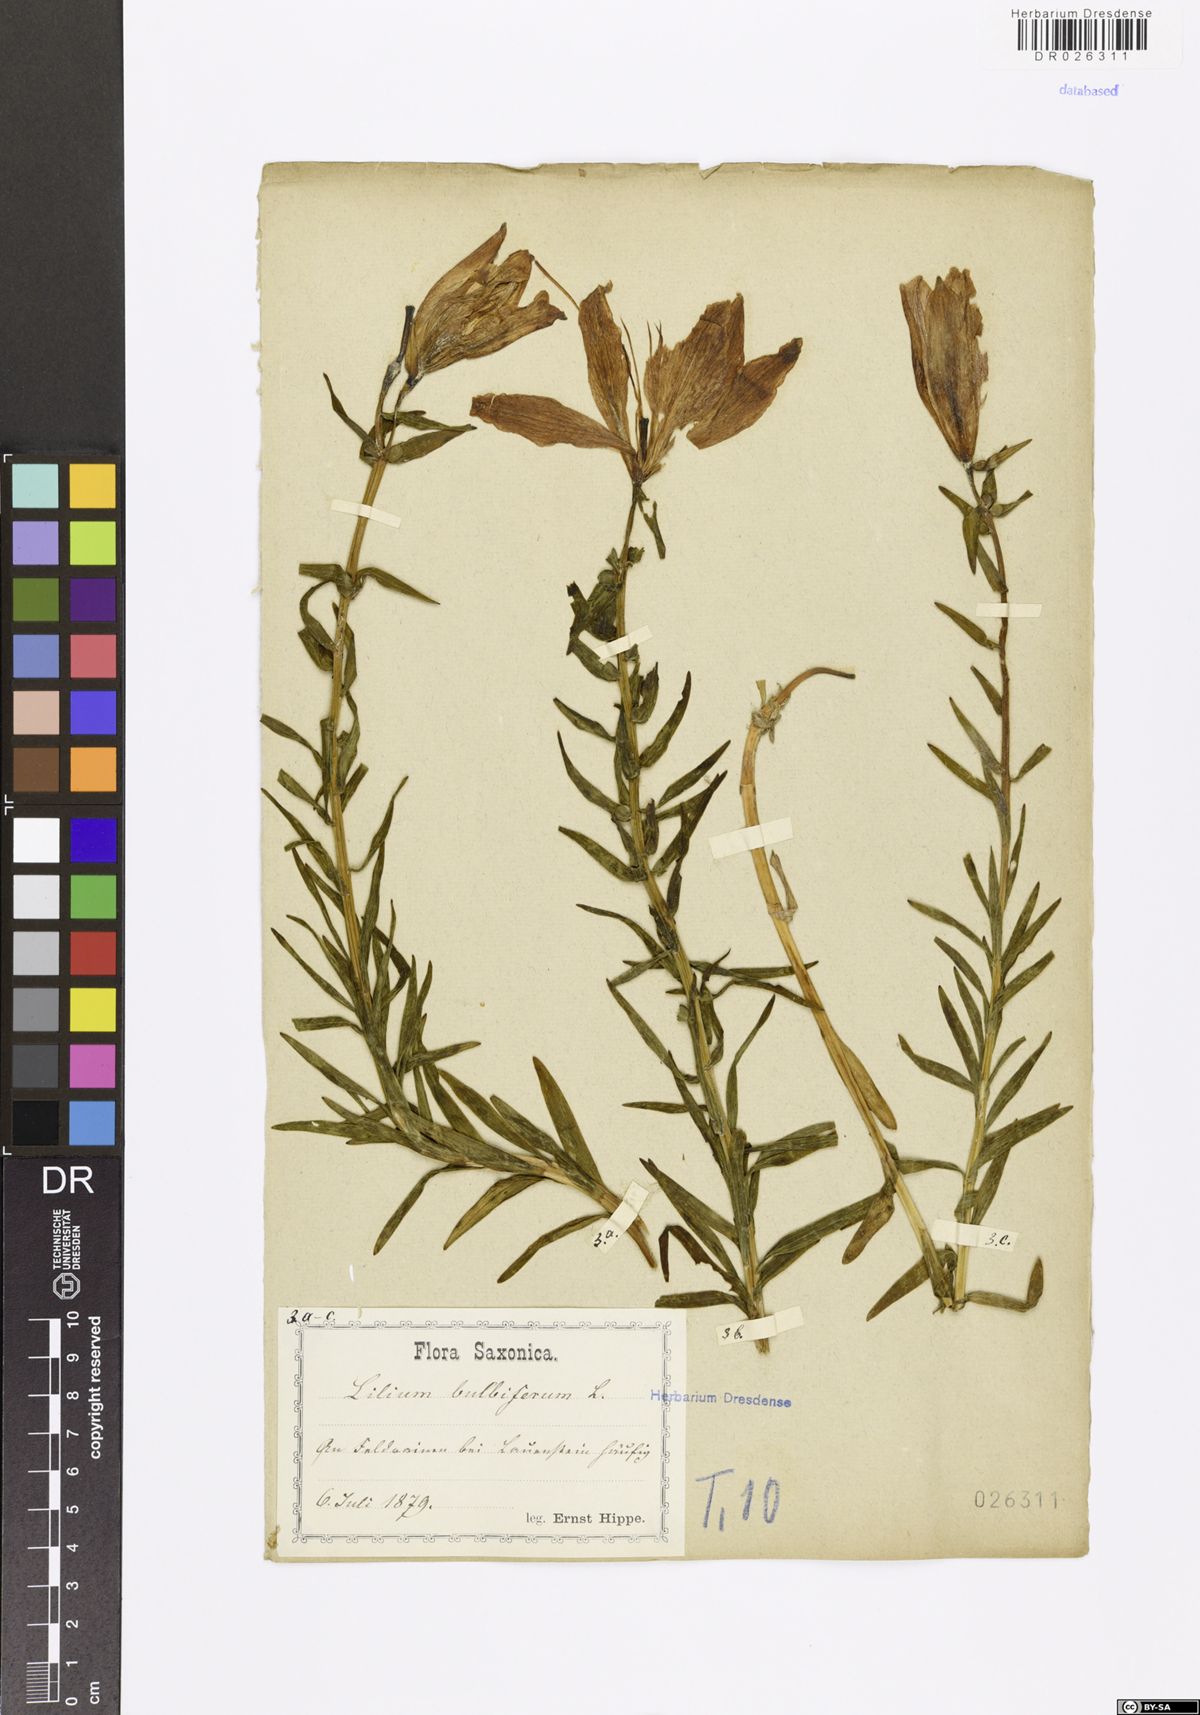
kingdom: Plantae
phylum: Tracheophyta
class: Liliopsida
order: Liliales
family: Liliaceae
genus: Lilium
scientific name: Lilium bulbiferum
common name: Orange lily
